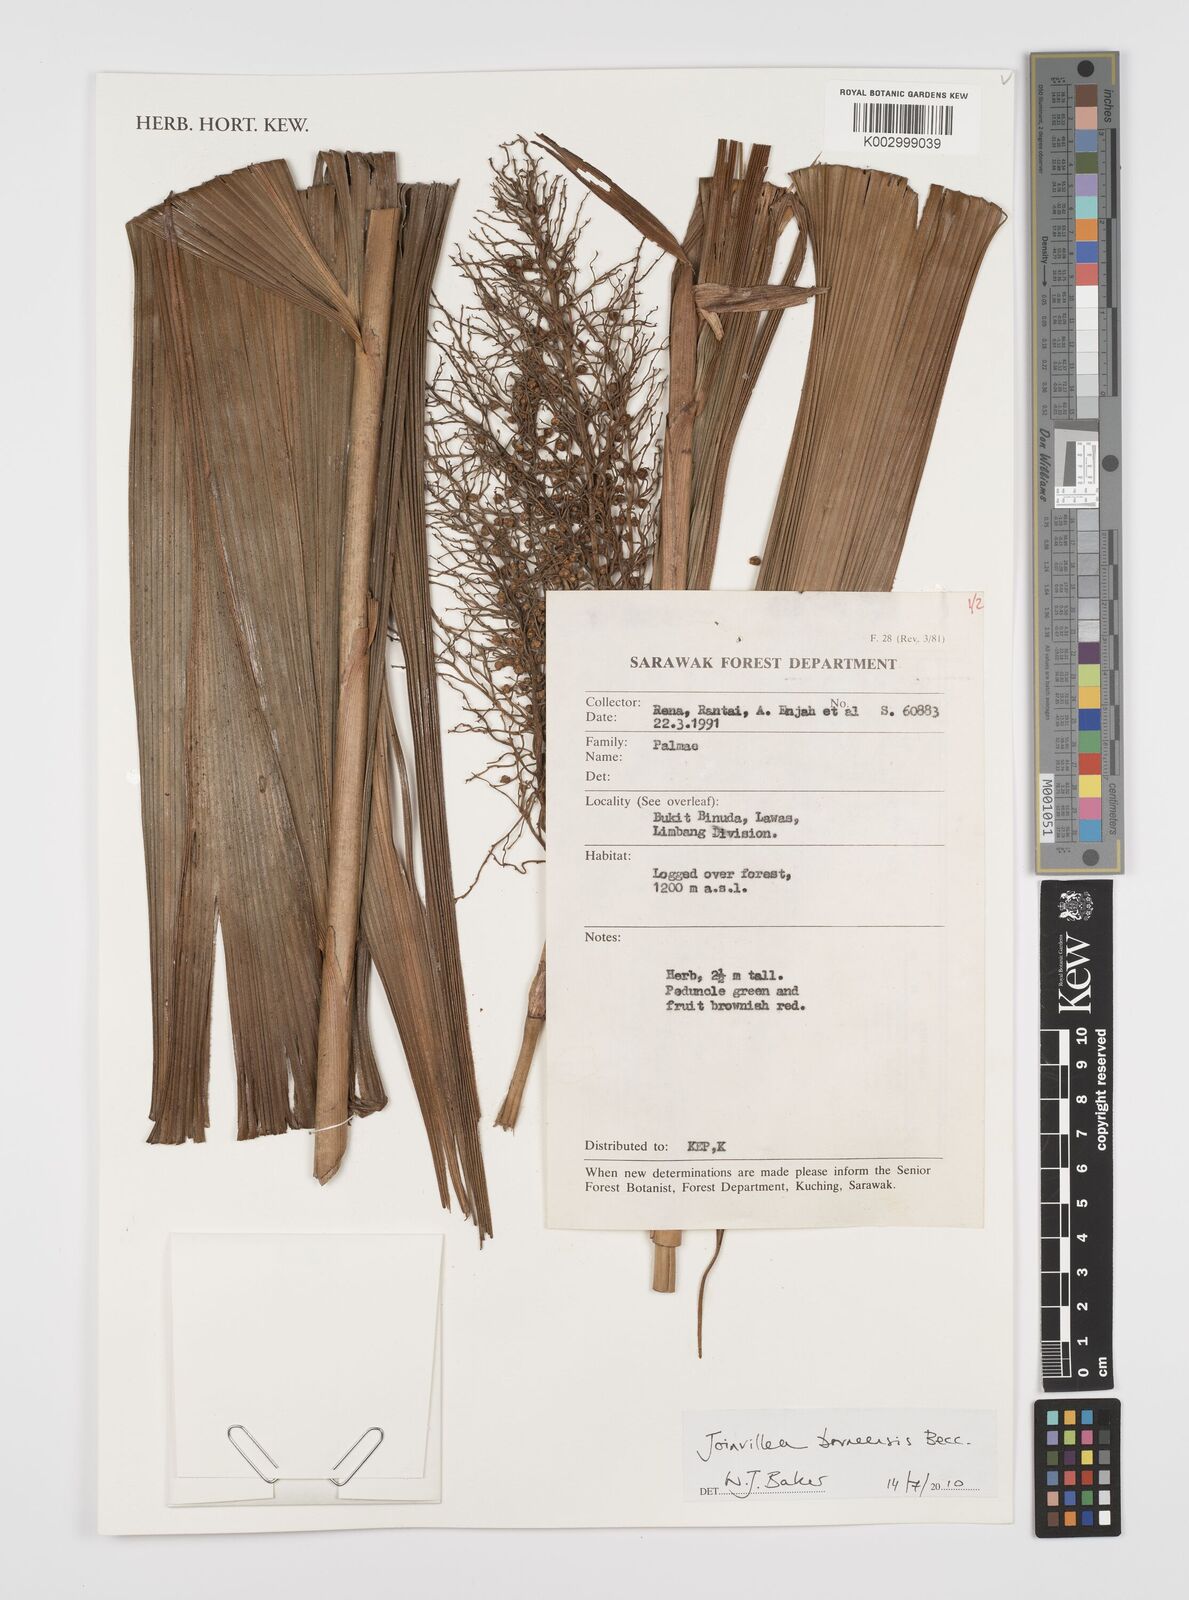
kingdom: Plantae
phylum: Tracheophyta
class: Liliopsida
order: Poales
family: Joinvilleaceae
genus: Joinvillea
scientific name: Joinvillea borneensis
